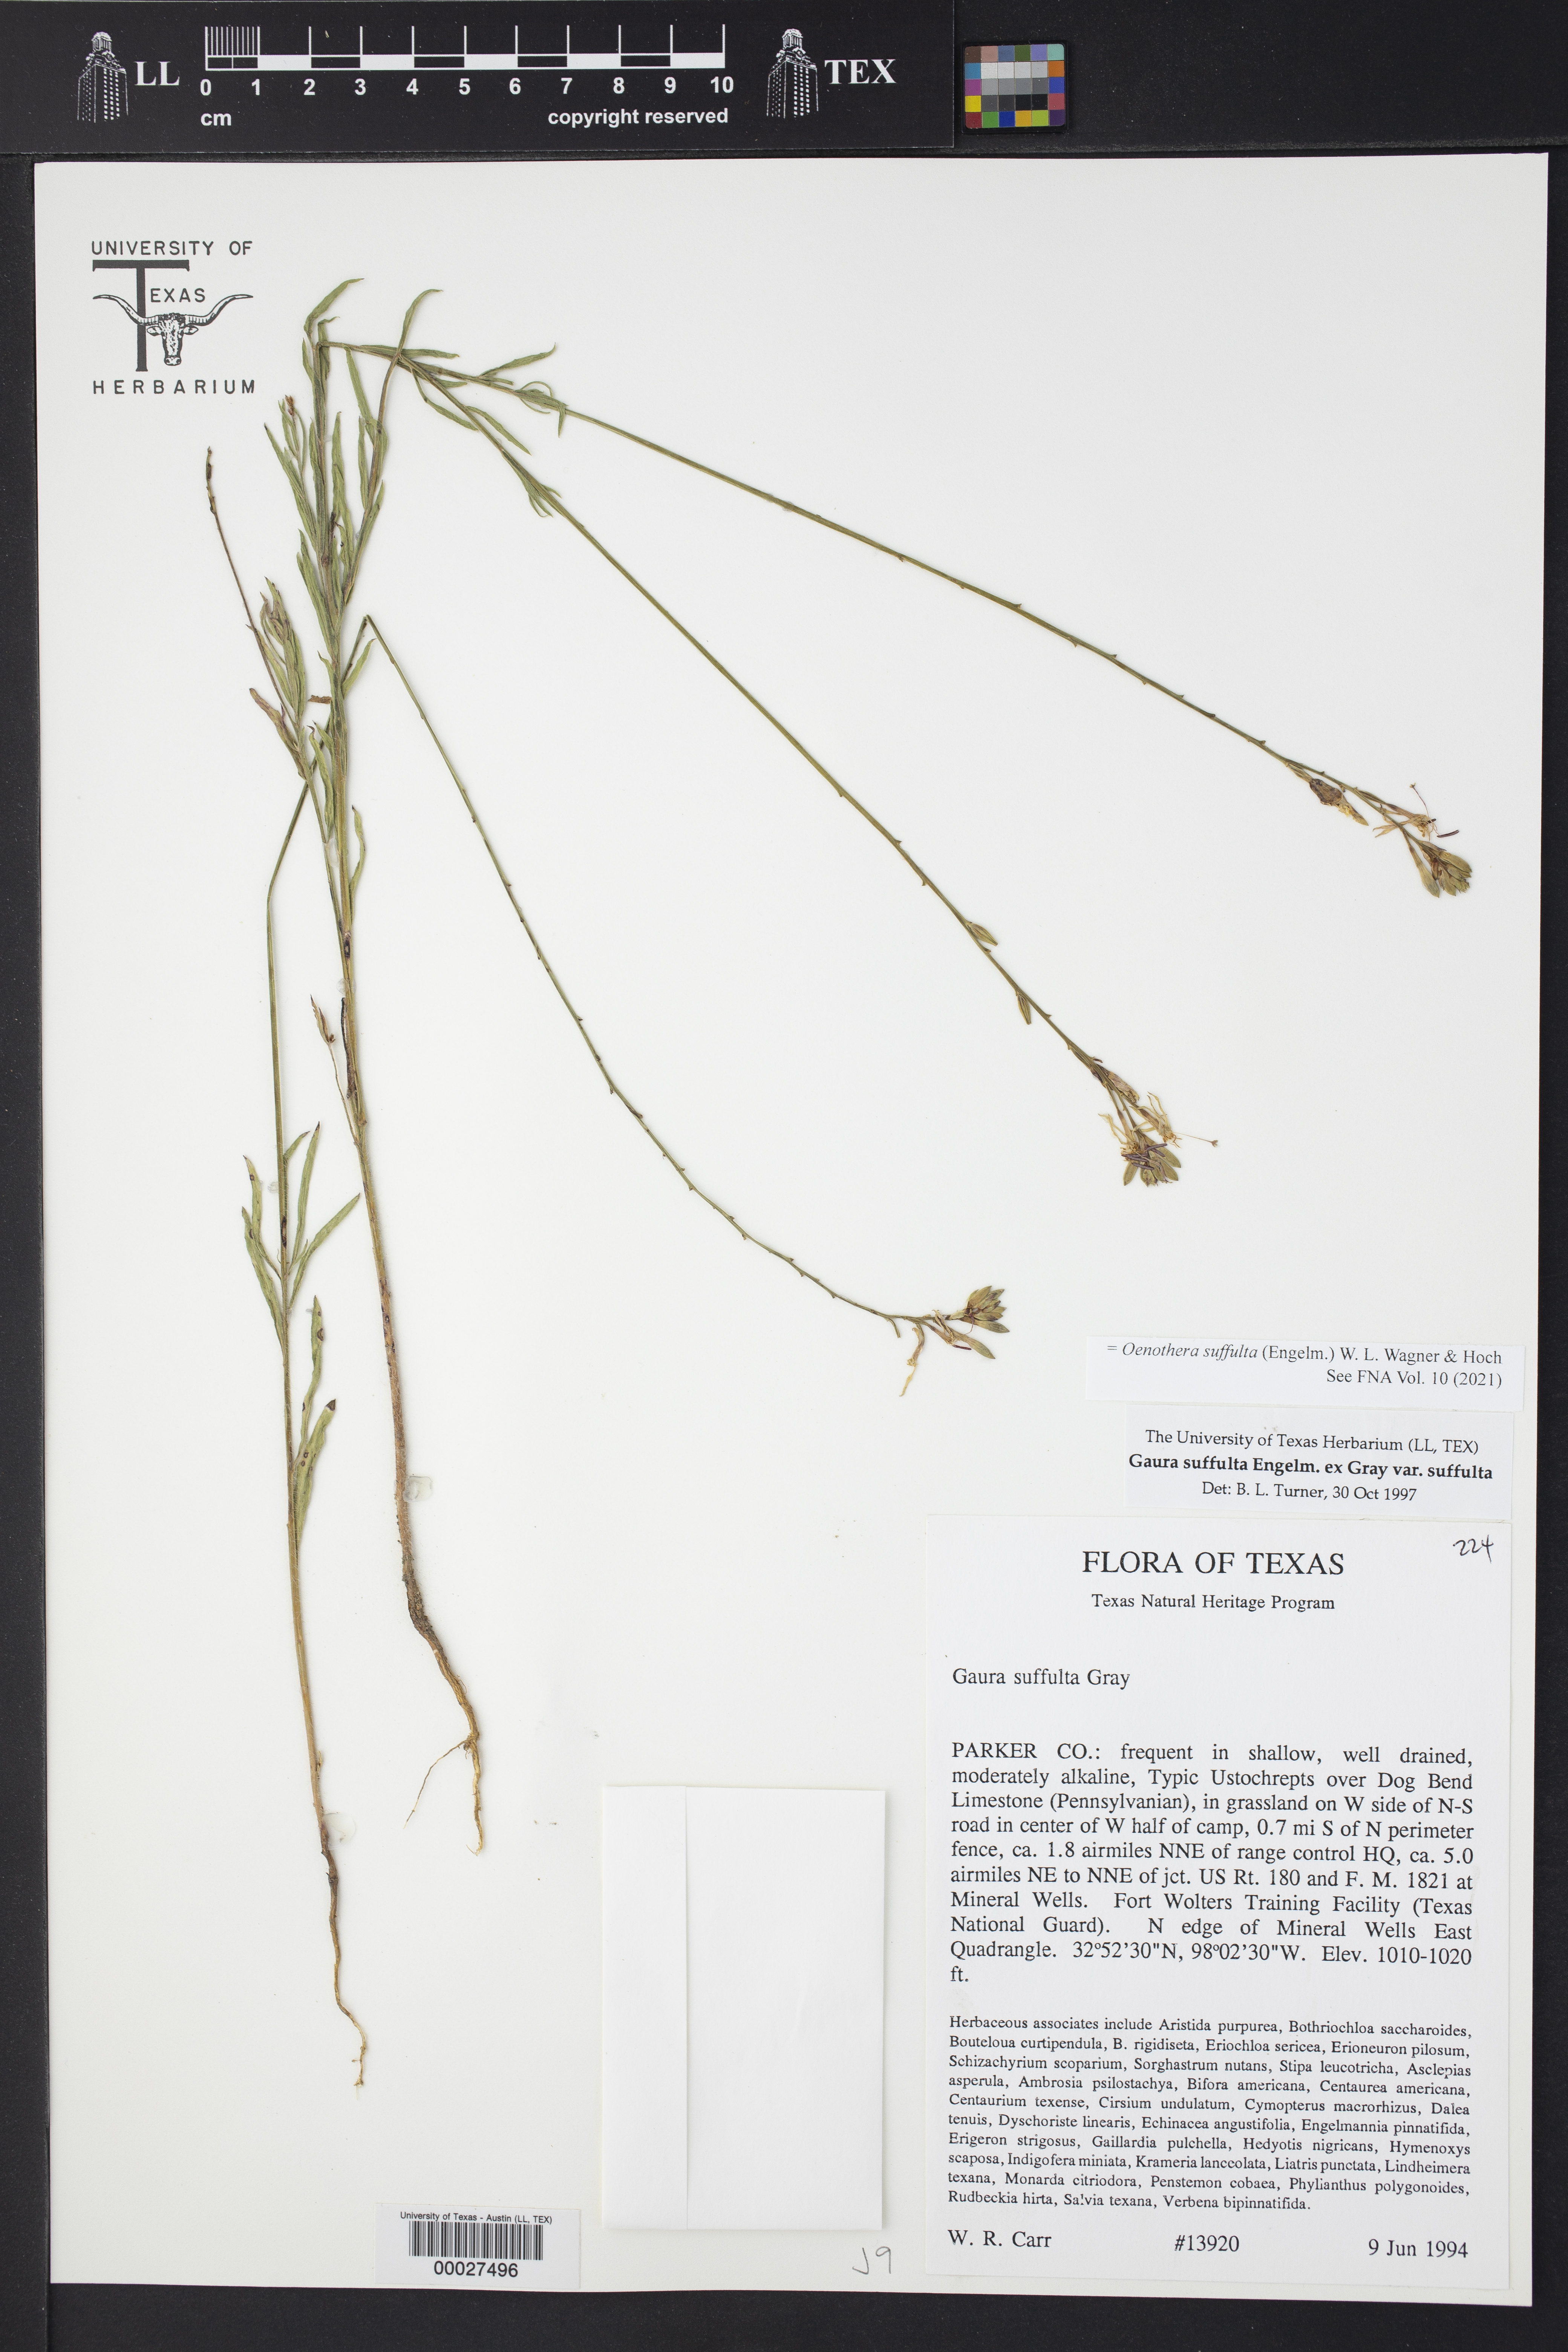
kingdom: Plantae
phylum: Tracheophyta
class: Magnoliopsida
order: Myrtales
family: Onagraceae
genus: Oenothera
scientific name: Oenothera suffulta
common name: Kisses
